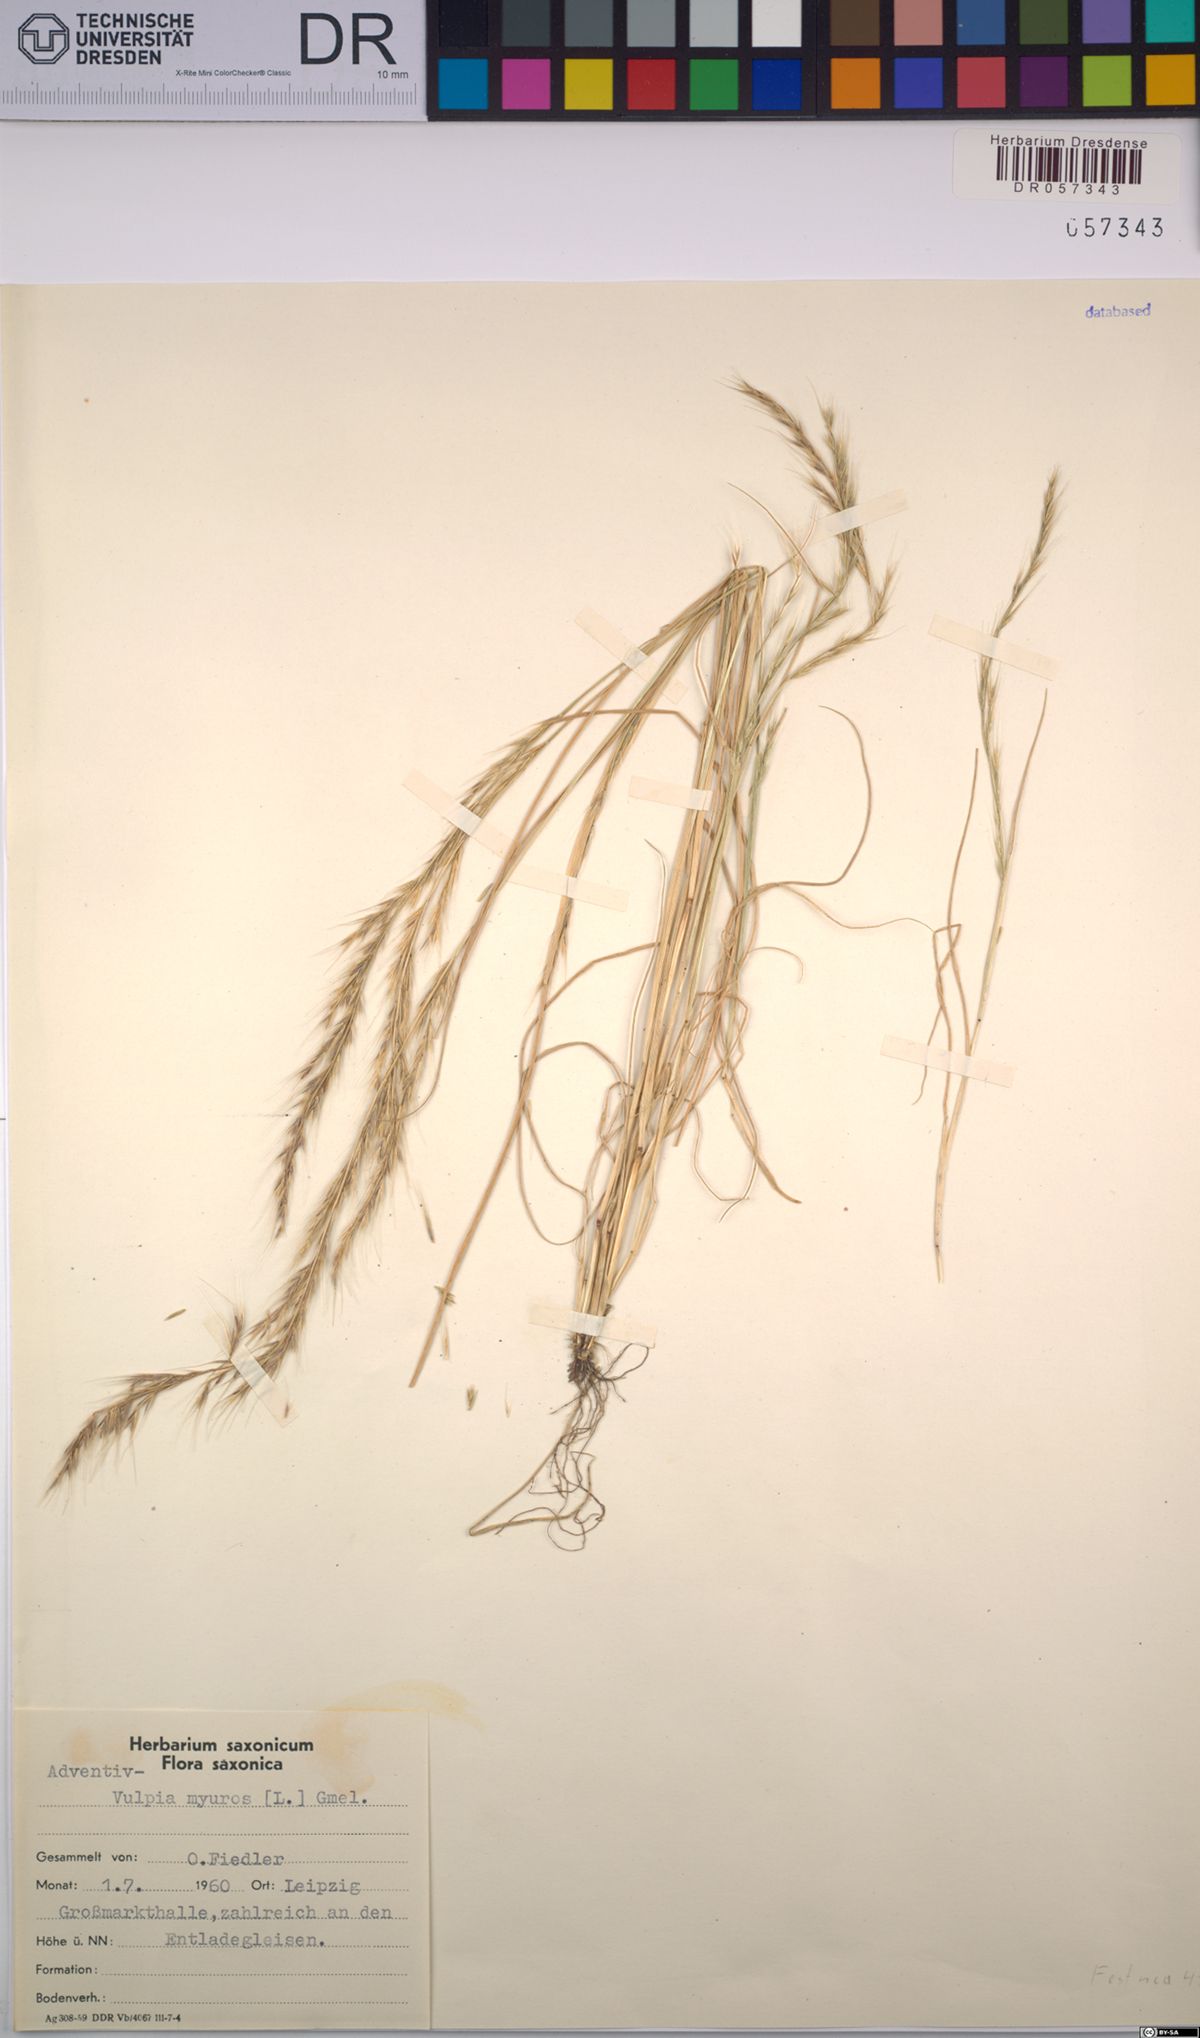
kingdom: Plantae
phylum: Tracheophyta
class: Liliopsida
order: Poales
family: Poaceae
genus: Festuca
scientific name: Festuca myuros
